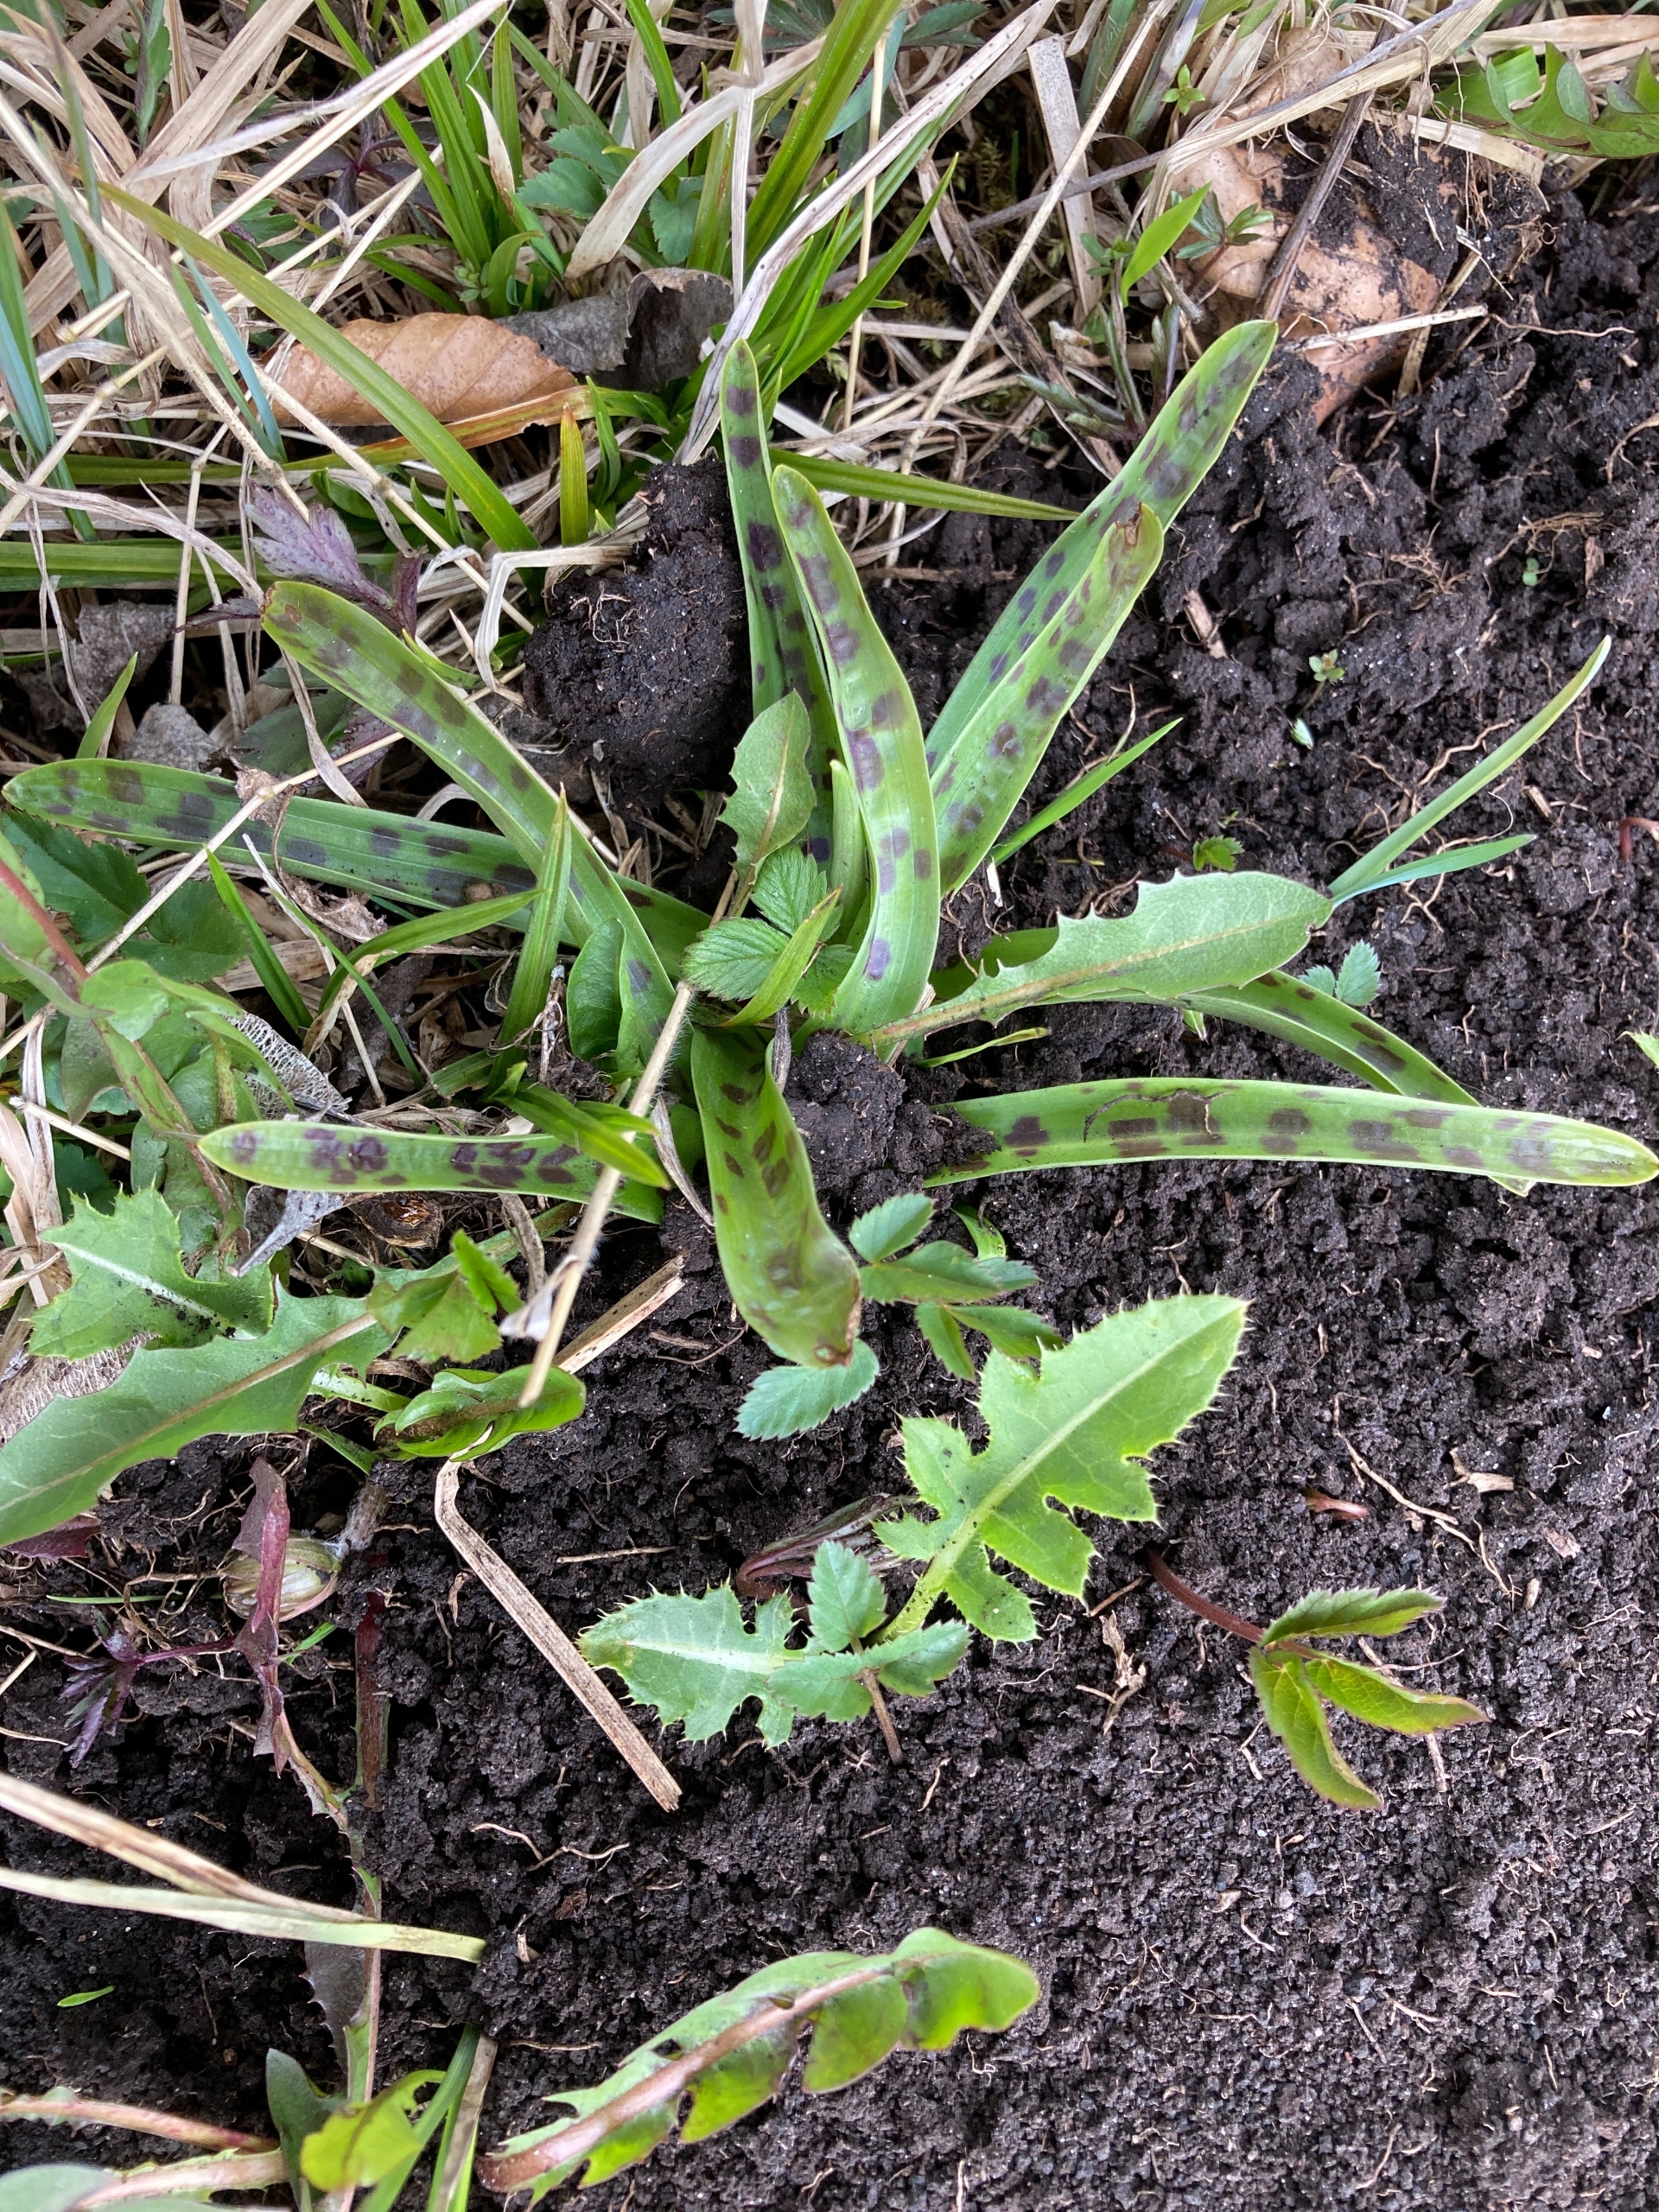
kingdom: Plantae
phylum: Tracheophyta
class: Liliopsida
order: Asparagales
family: Orchidaceae
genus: Orchis
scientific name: Orchis mascula
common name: Tyndakset gøgeurt
